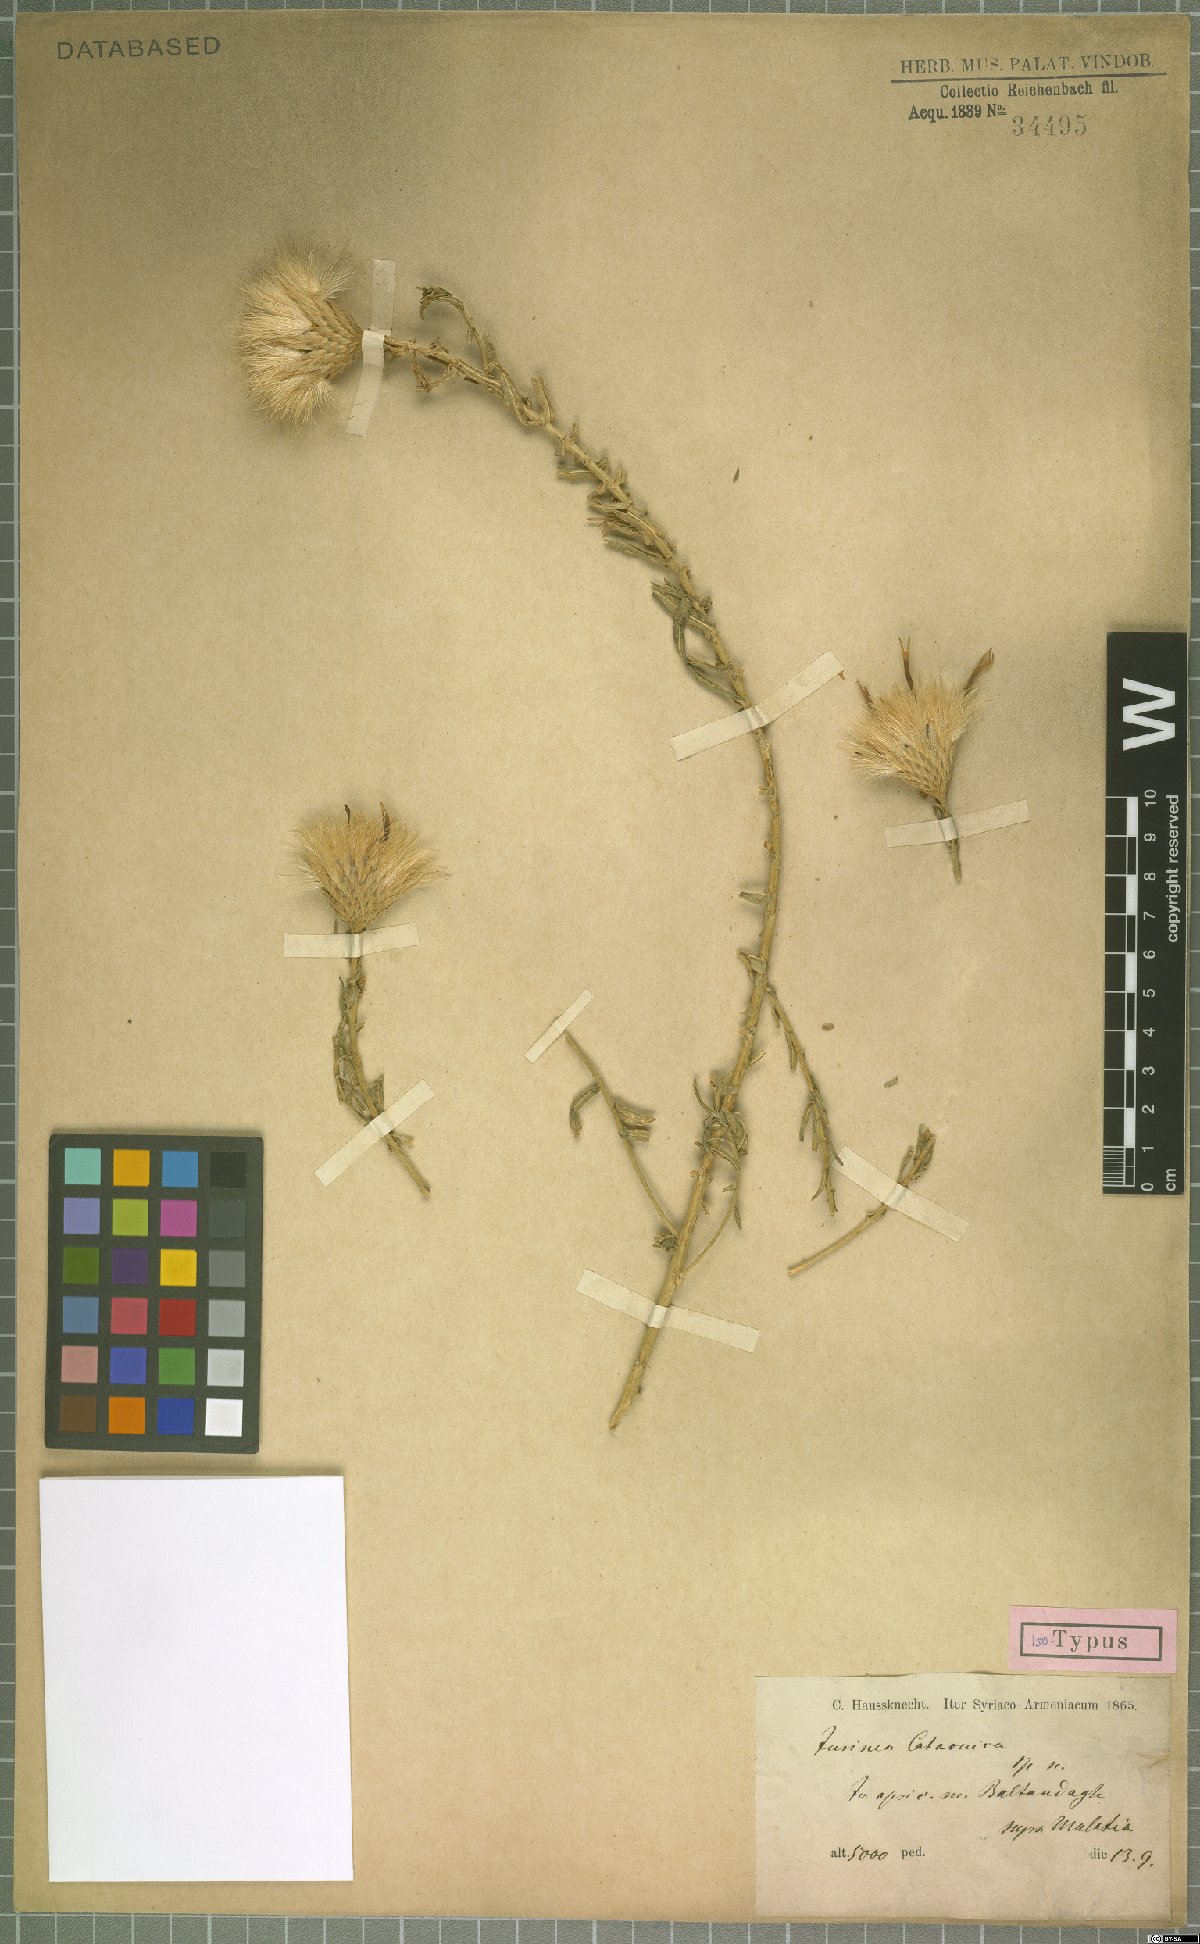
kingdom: Plantae
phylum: Tracheophyta
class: Magnoliopsida
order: Asterales
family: Asteraceae
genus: Jurinea
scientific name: Jurinea cataonica
